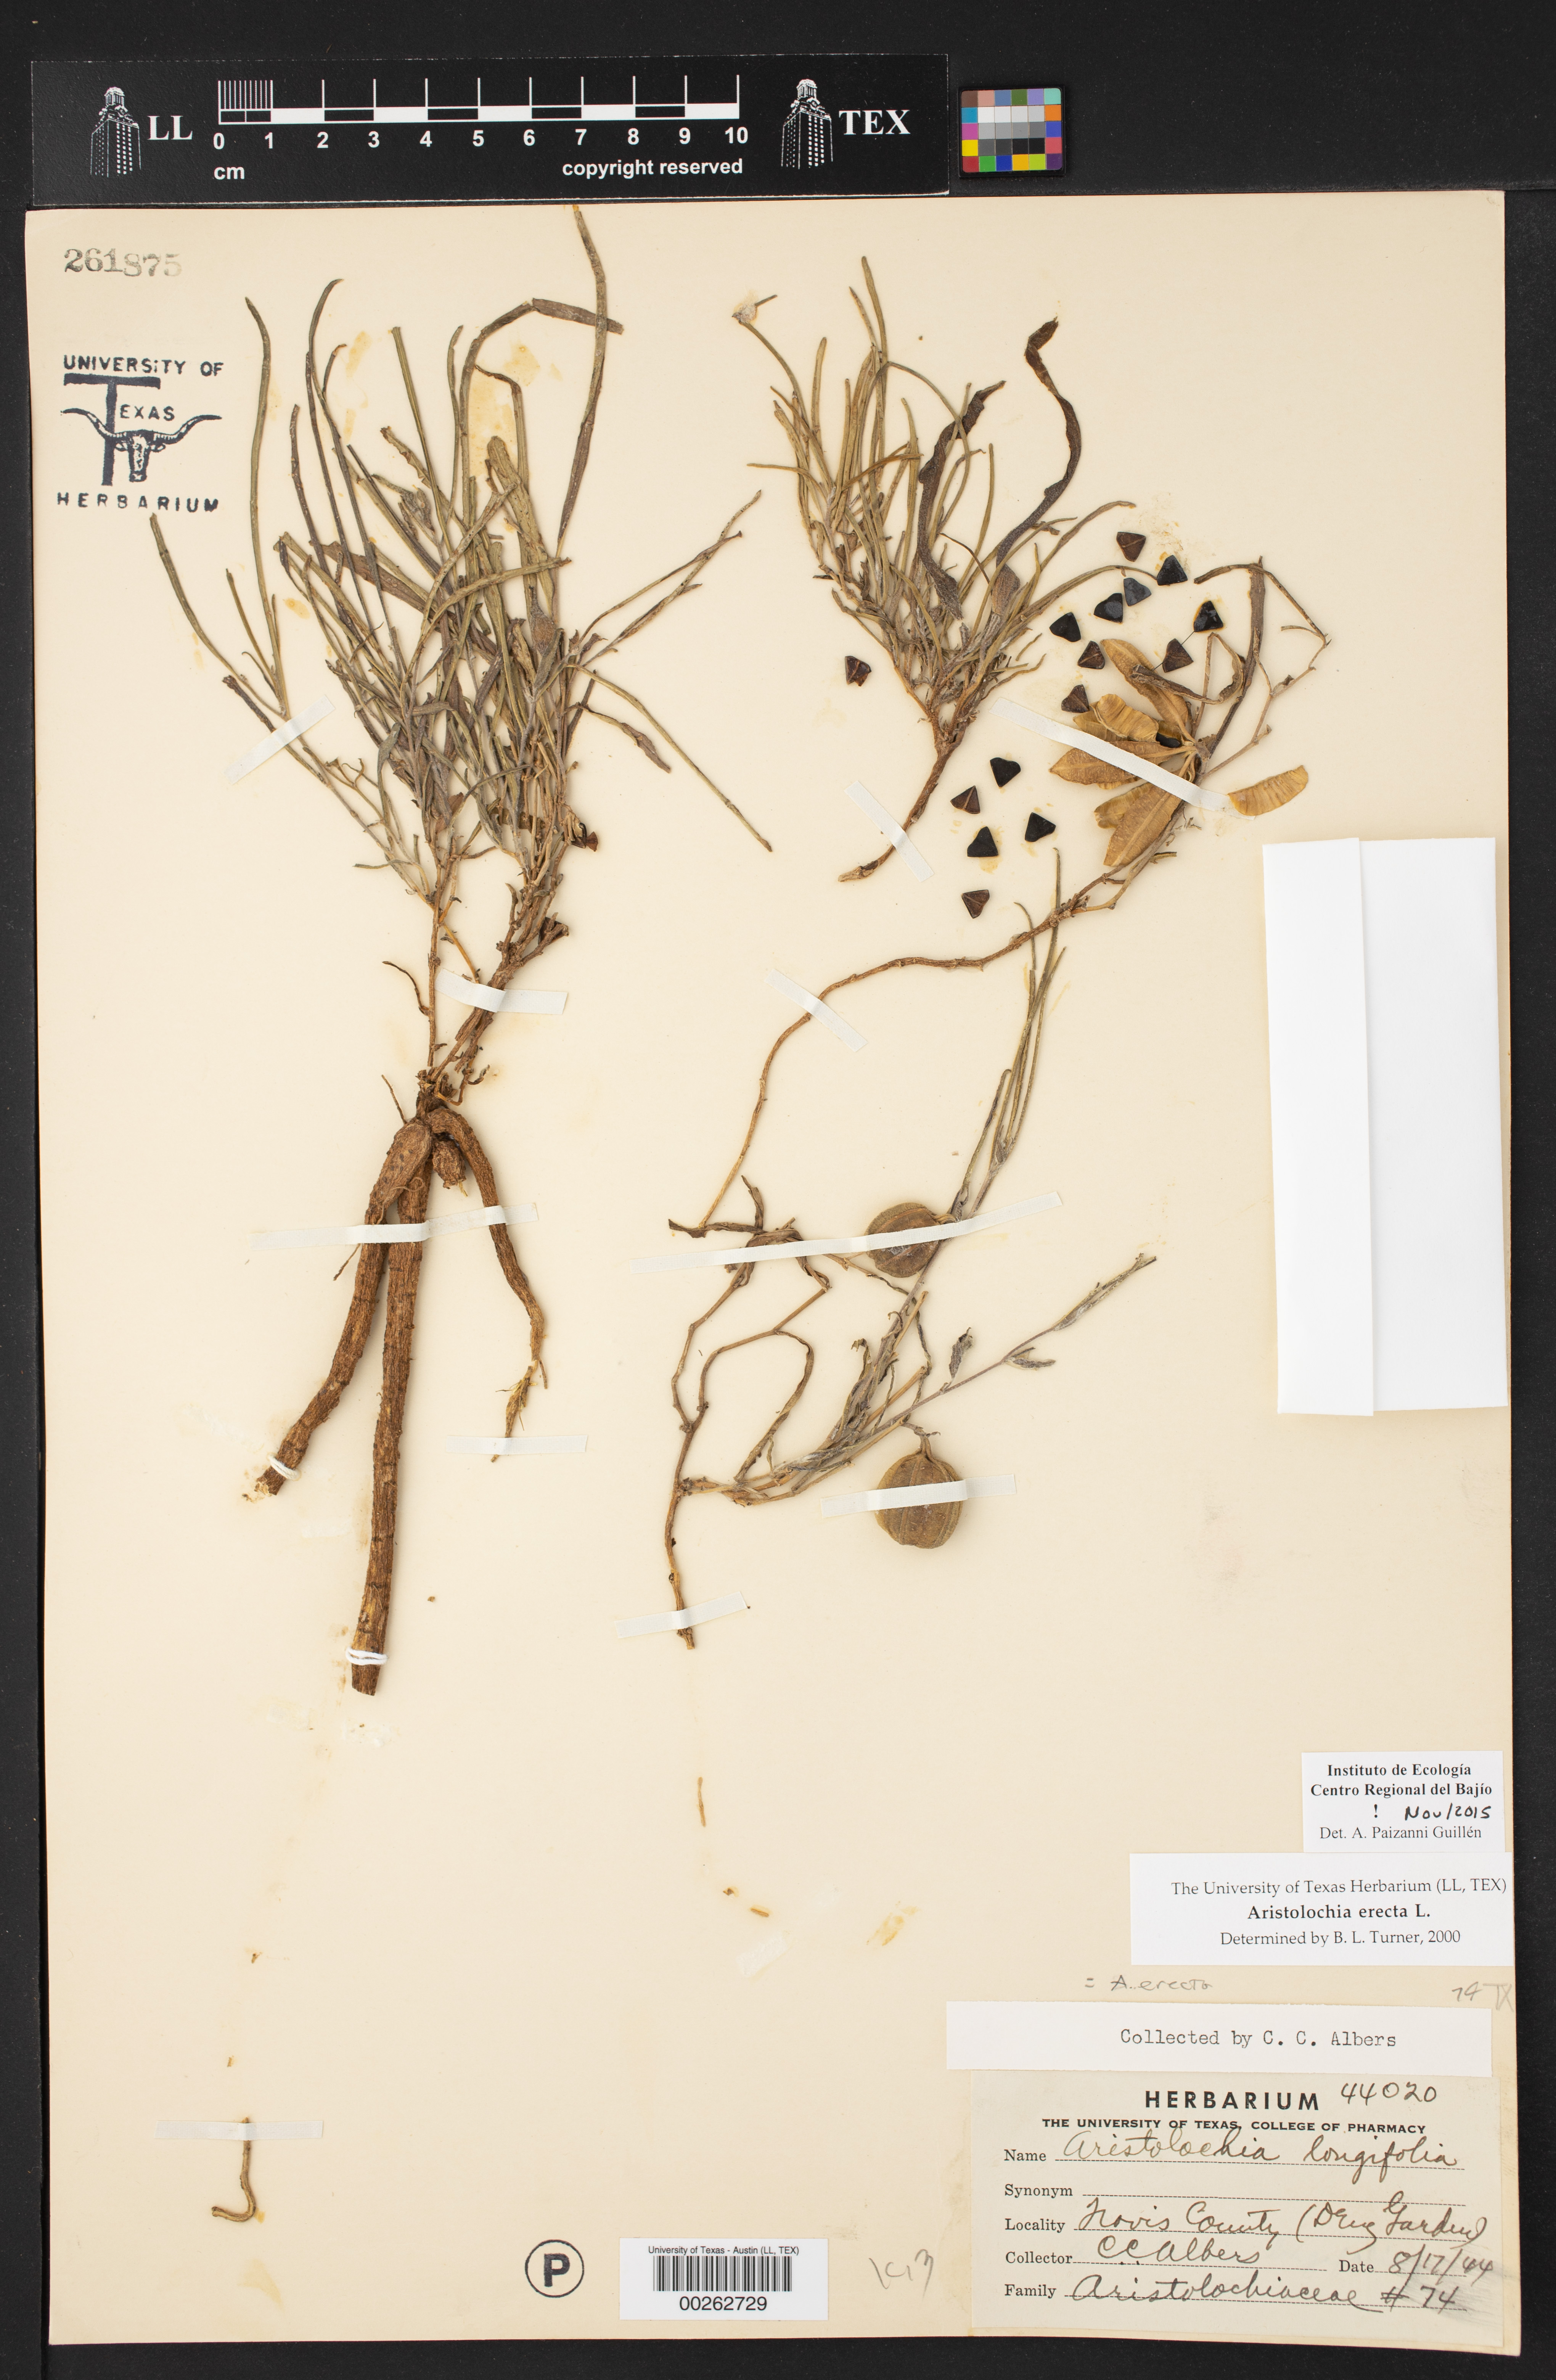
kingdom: Plantae
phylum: Tracheophyta
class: Magnoliopsida
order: Piperales
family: Aristolochiaceae
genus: Aristolochia
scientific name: Aristolochia erecta
